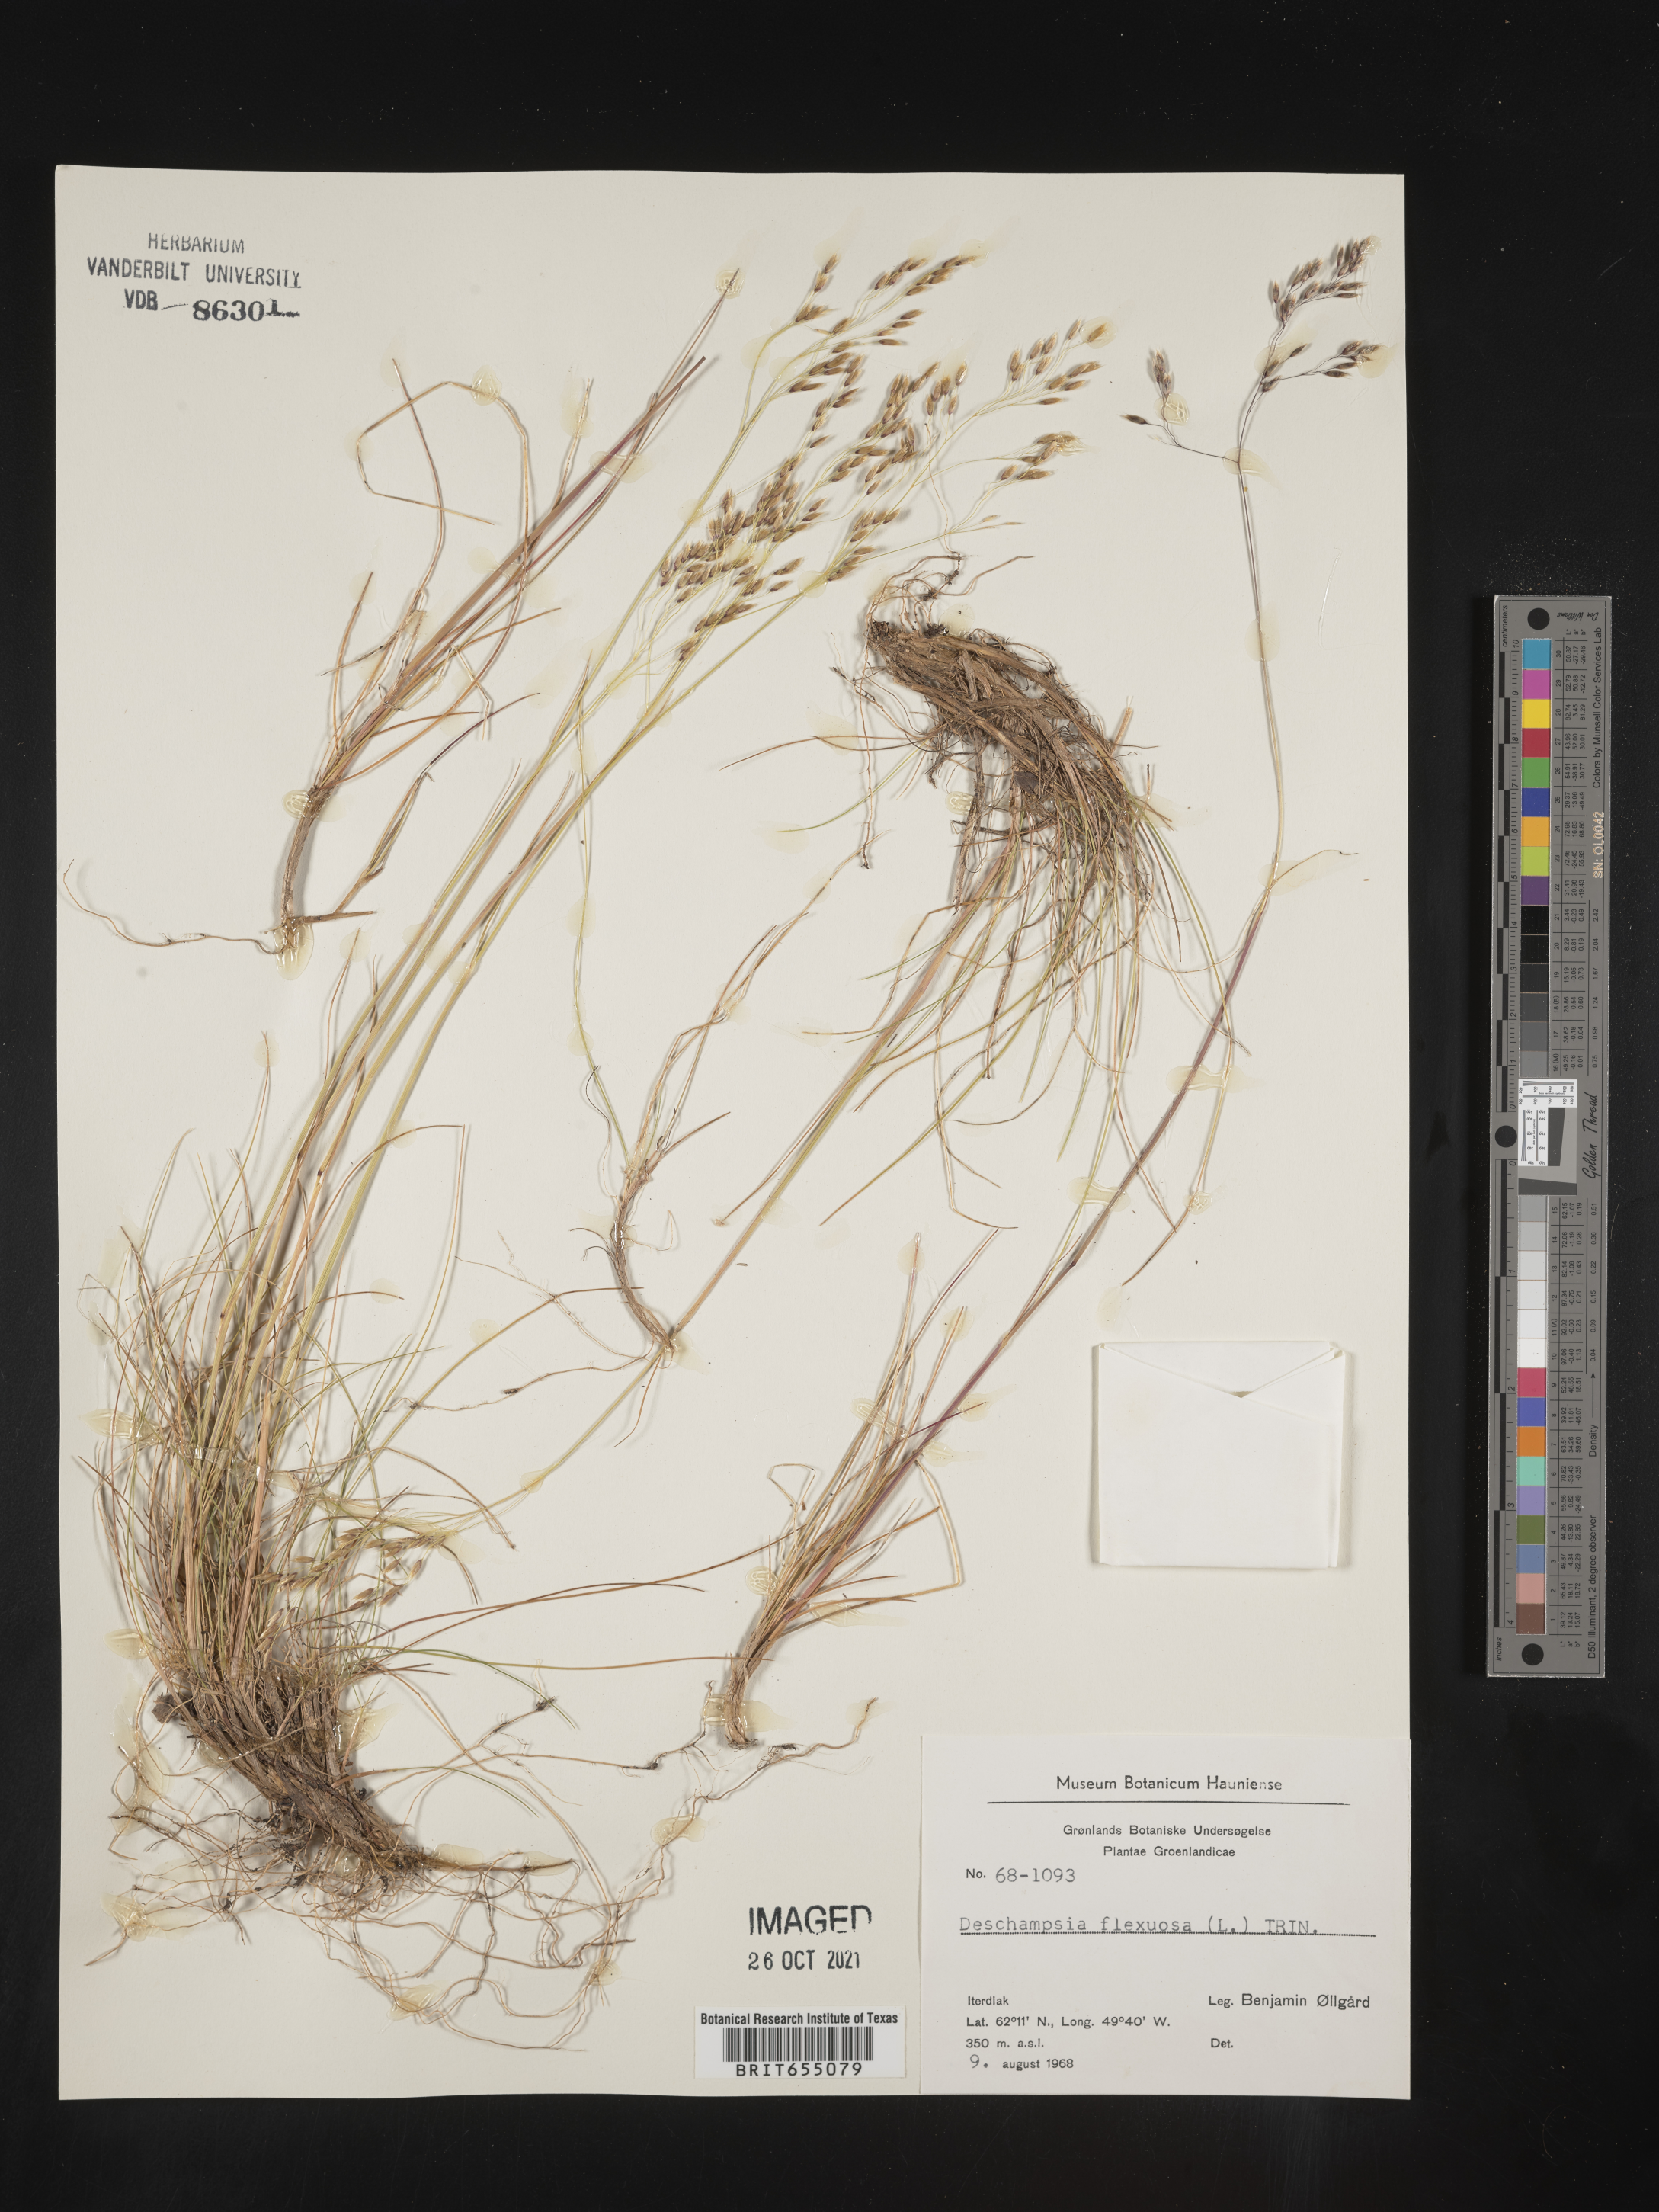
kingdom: Plantae
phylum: Tracheophyta
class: Liliopsida
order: Poales
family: Poaceae
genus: Deschampsia
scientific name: Deschampsia
